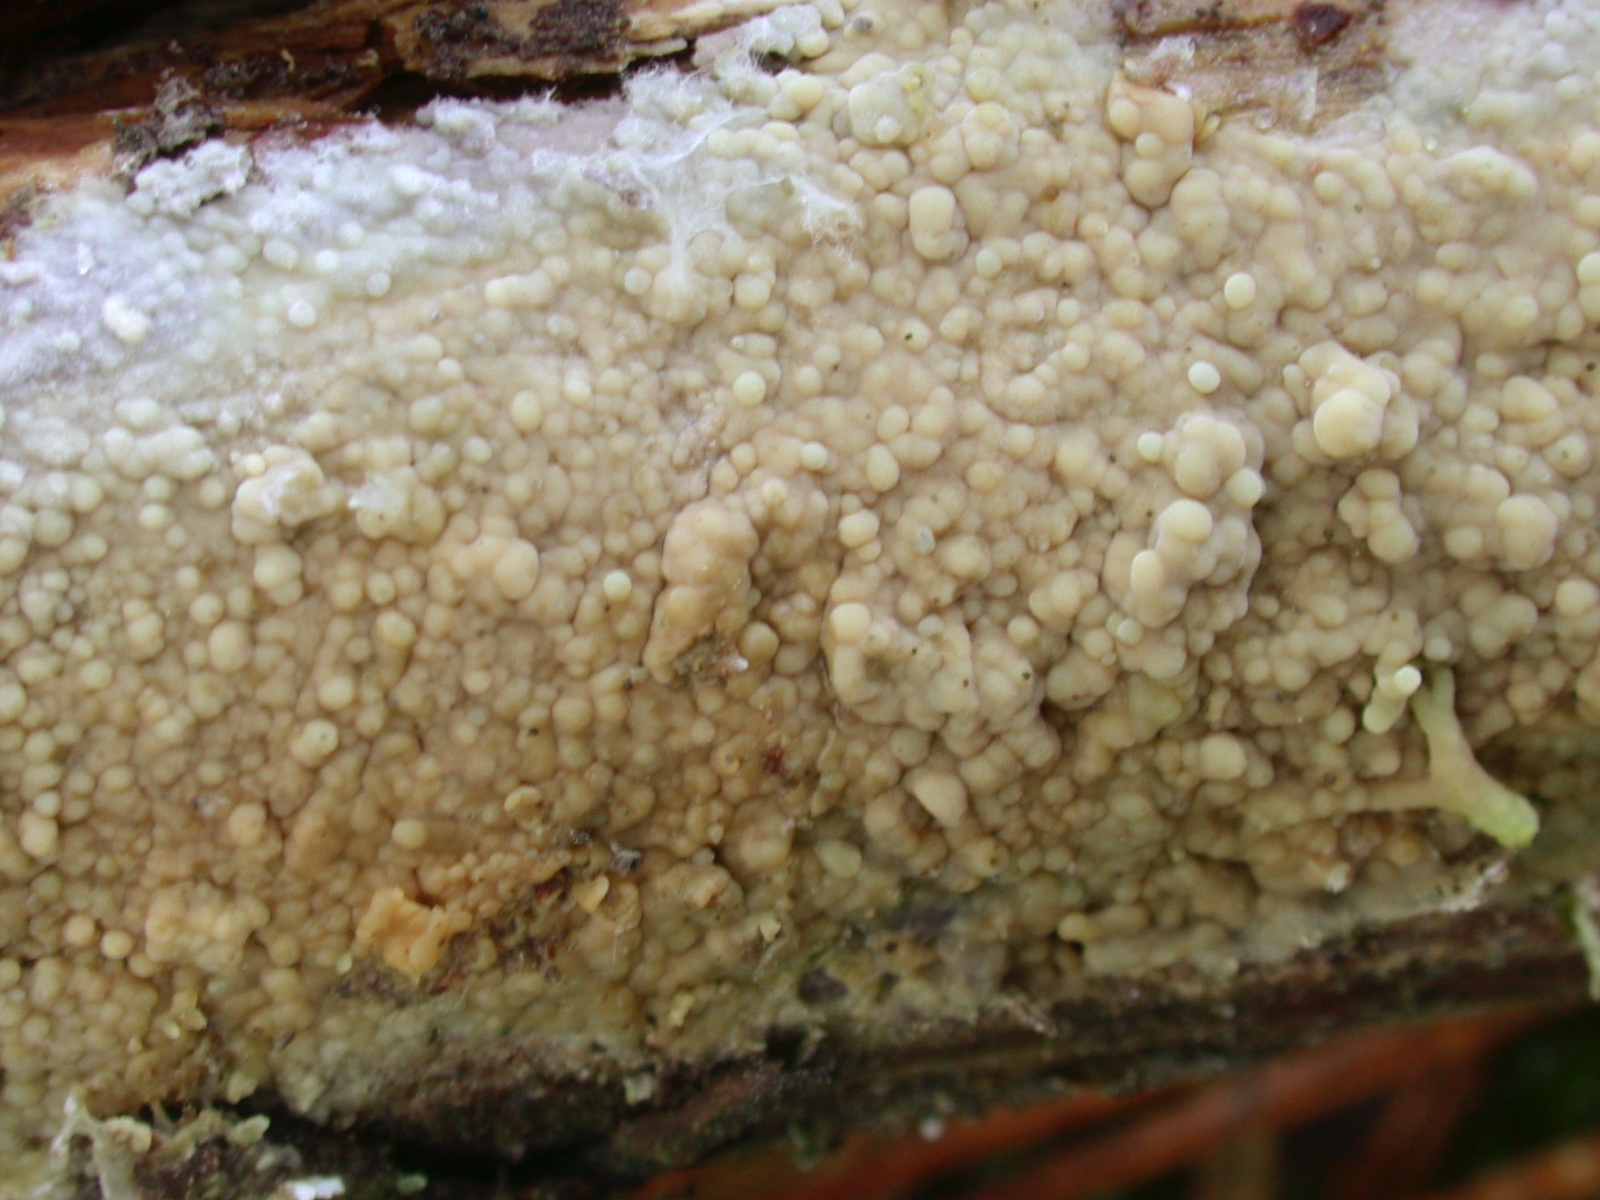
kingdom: Fungi
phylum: Basidiomycota
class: Agaricomycetes
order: Polyporales
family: Meruliaceae
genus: Mycoacia
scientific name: Mycoacia livida
